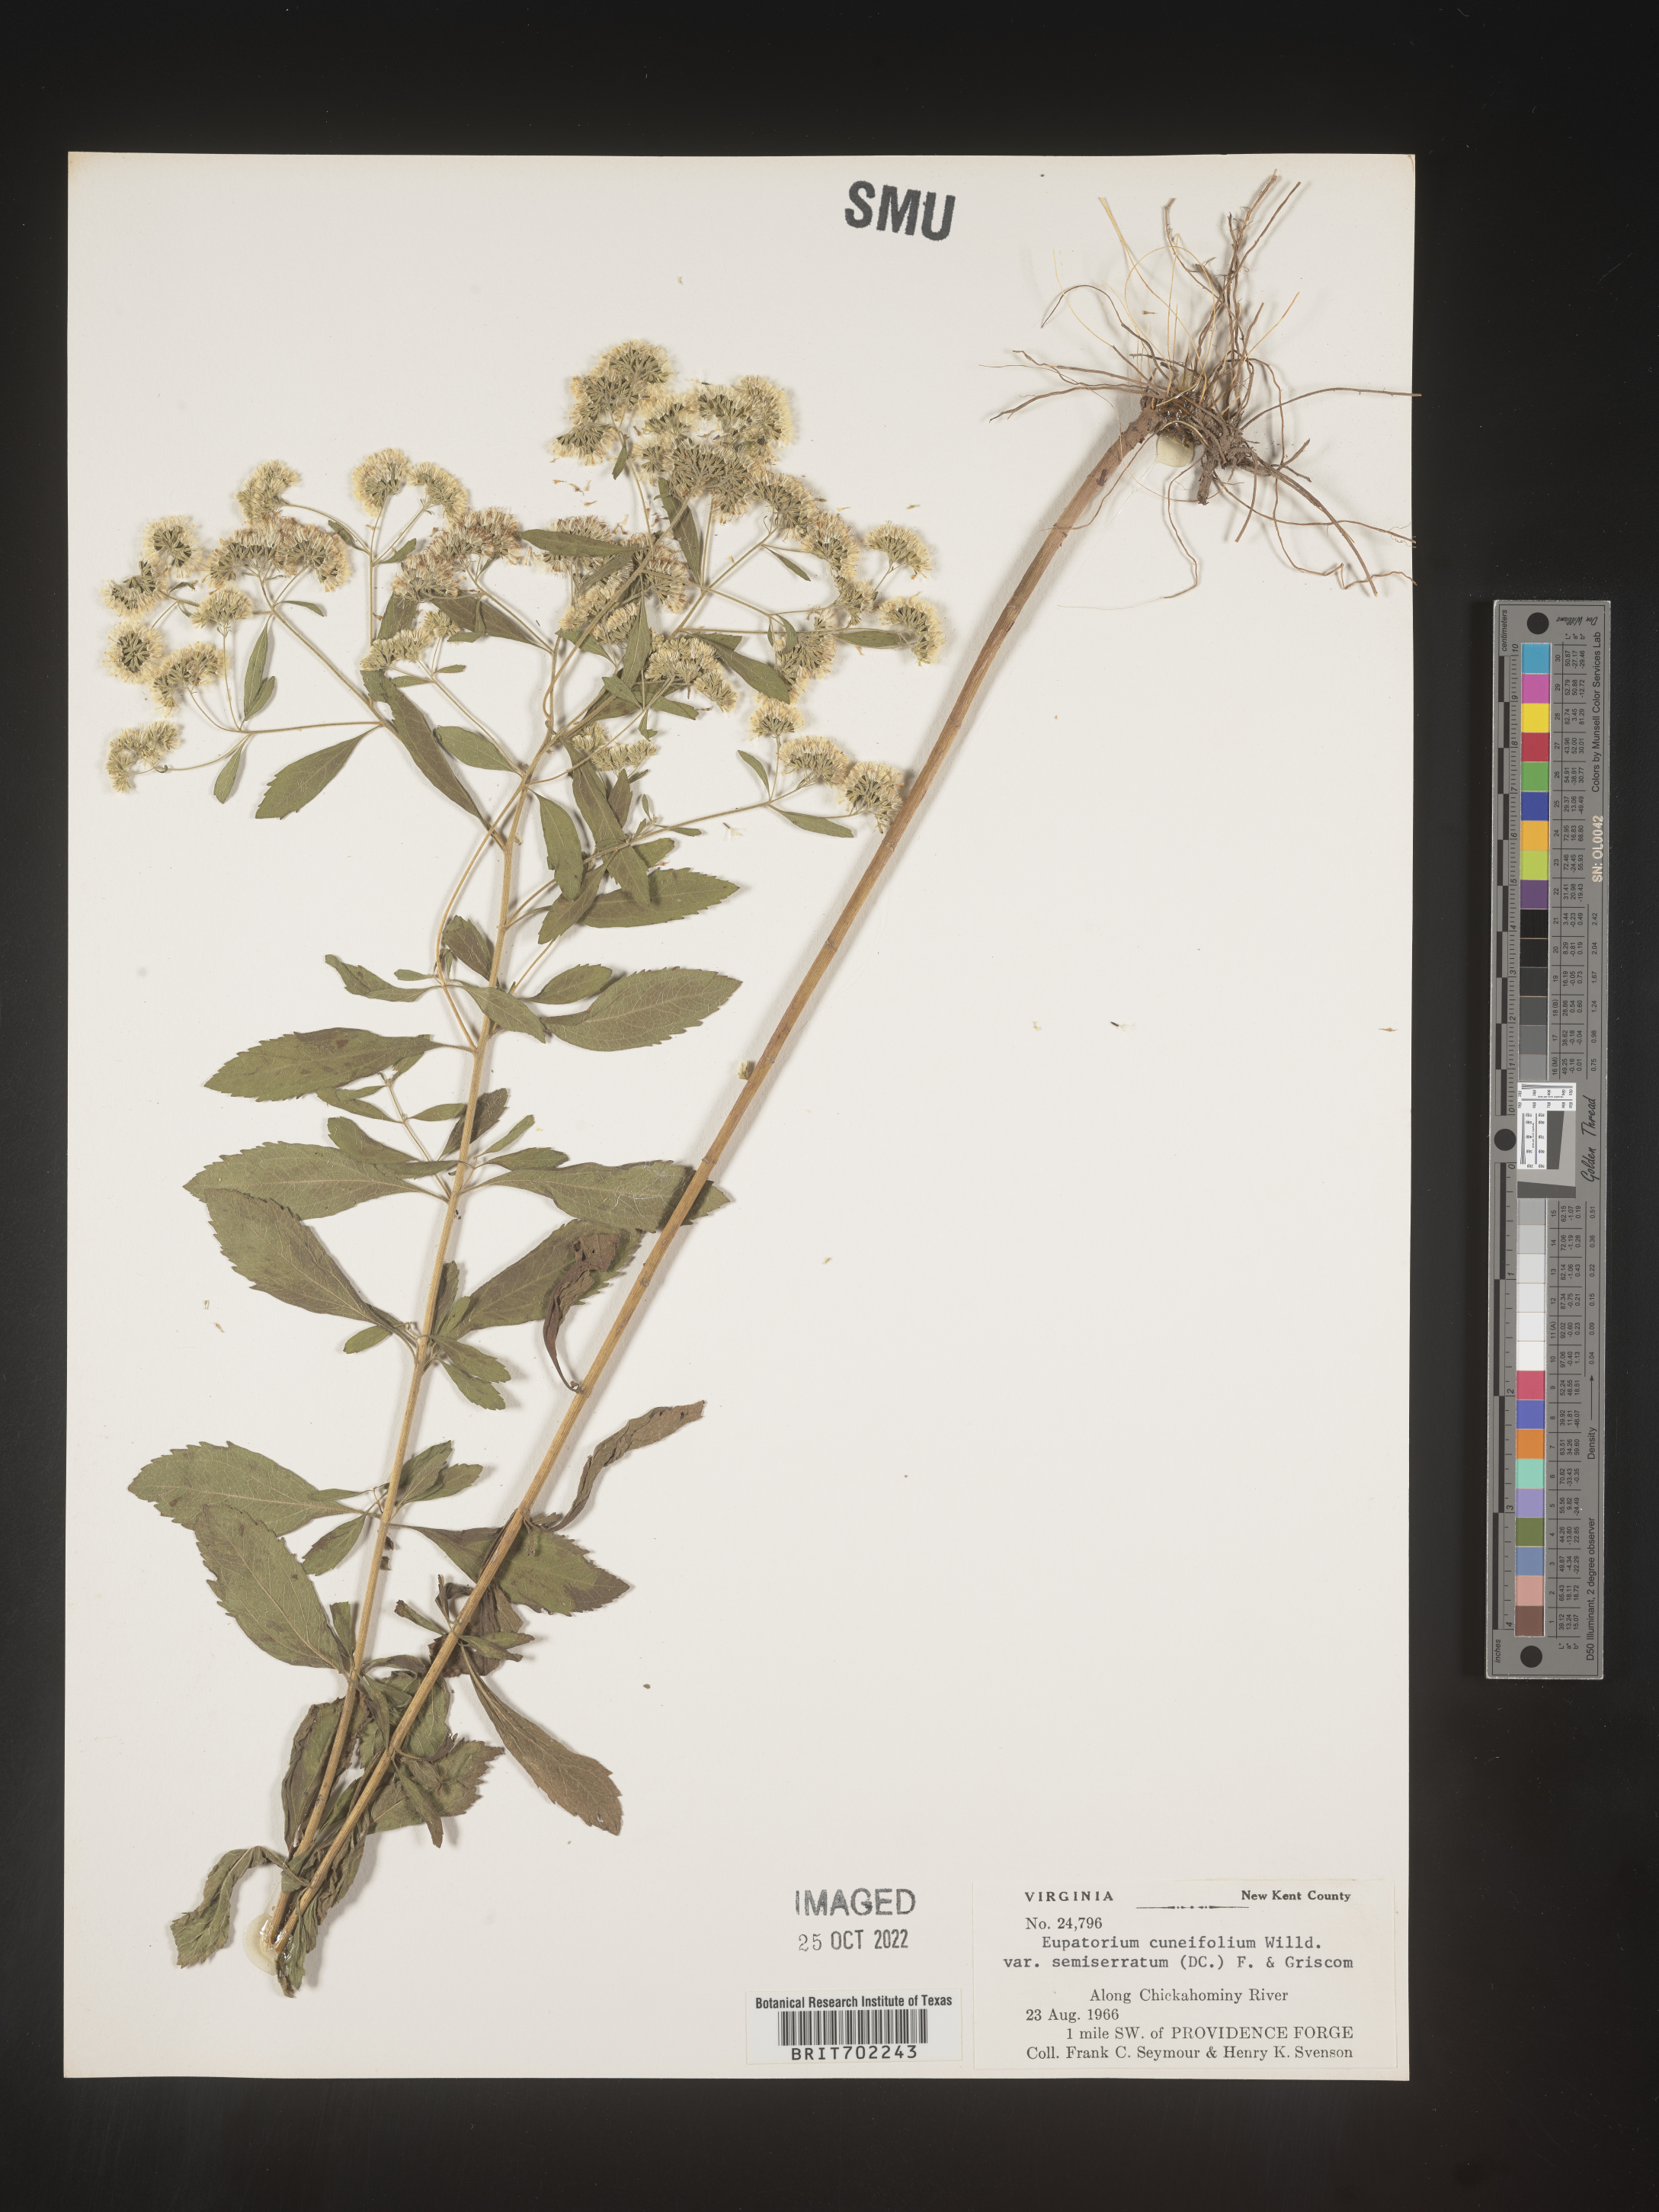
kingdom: Plantae
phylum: Tracheophyta
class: Magnoliopsida
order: Asterales
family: Asteraceae
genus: Eupatorium
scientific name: Eupatorium semiserratum
